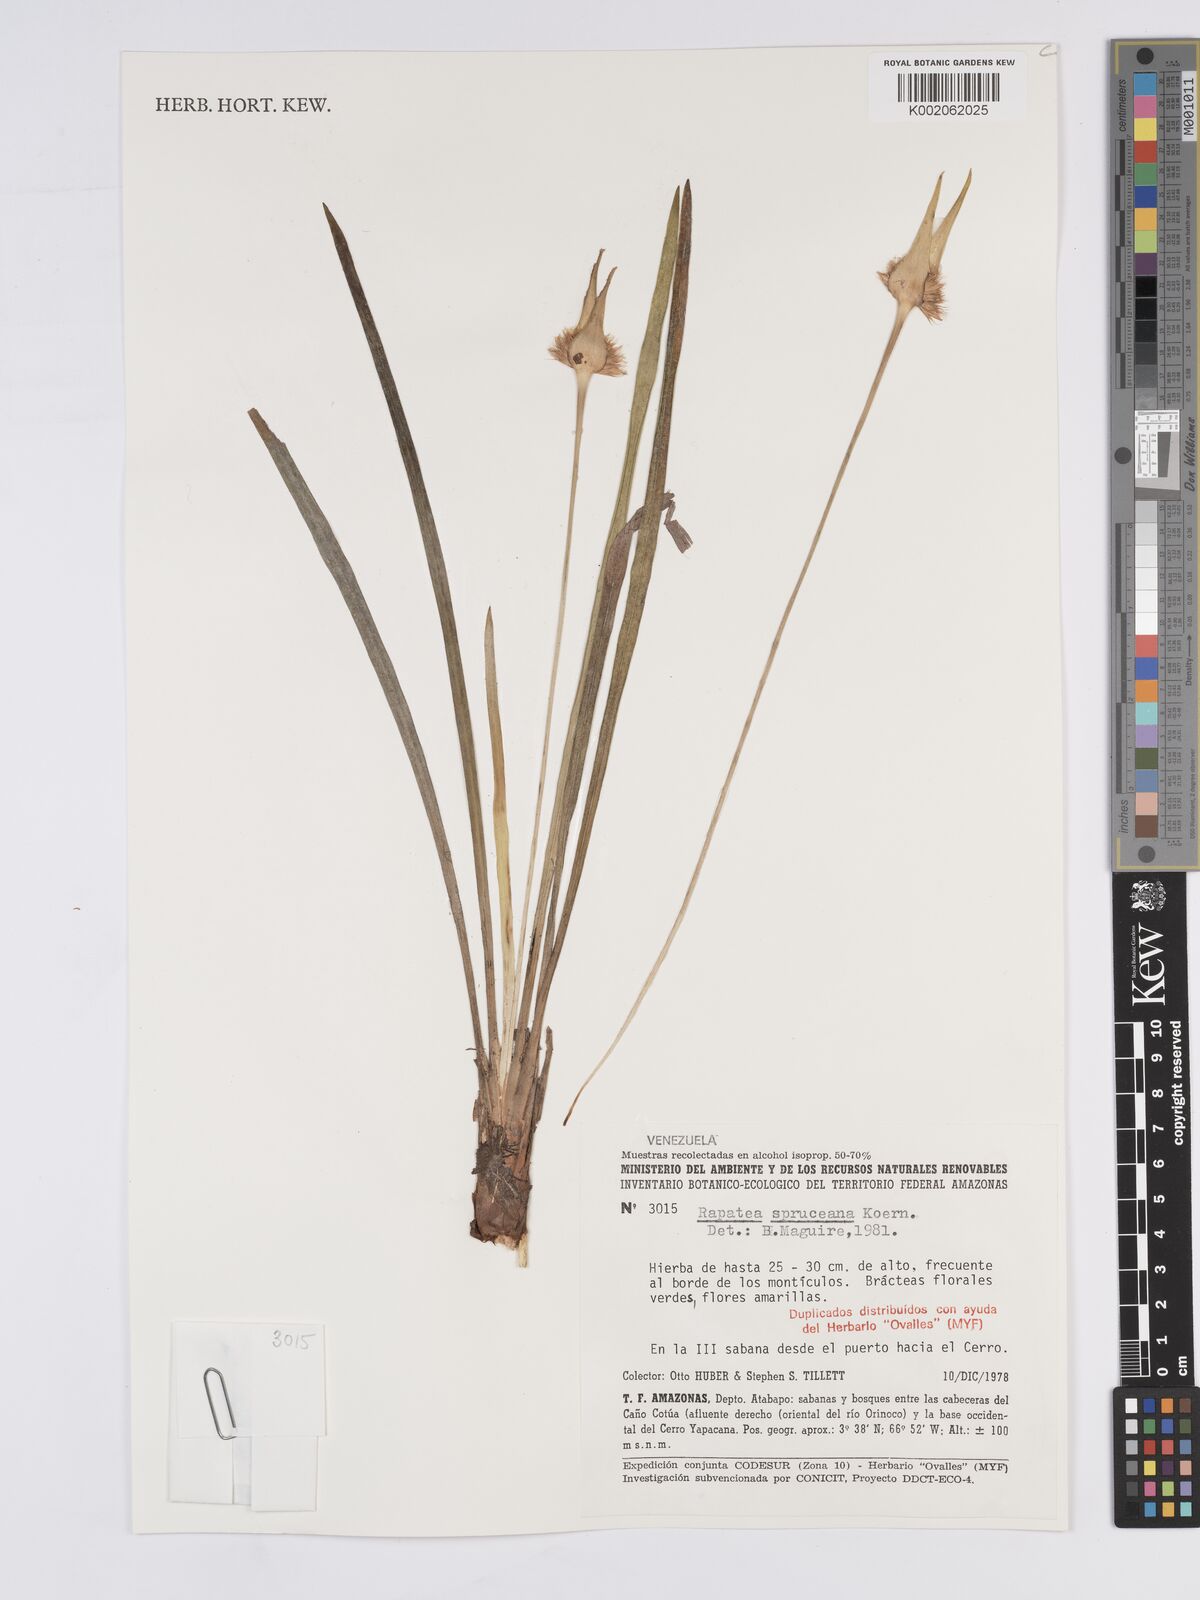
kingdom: Plantae
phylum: Tracheophyta
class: Liliopsida
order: Poales
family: Rapateaceae
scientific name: Rapateaceae
